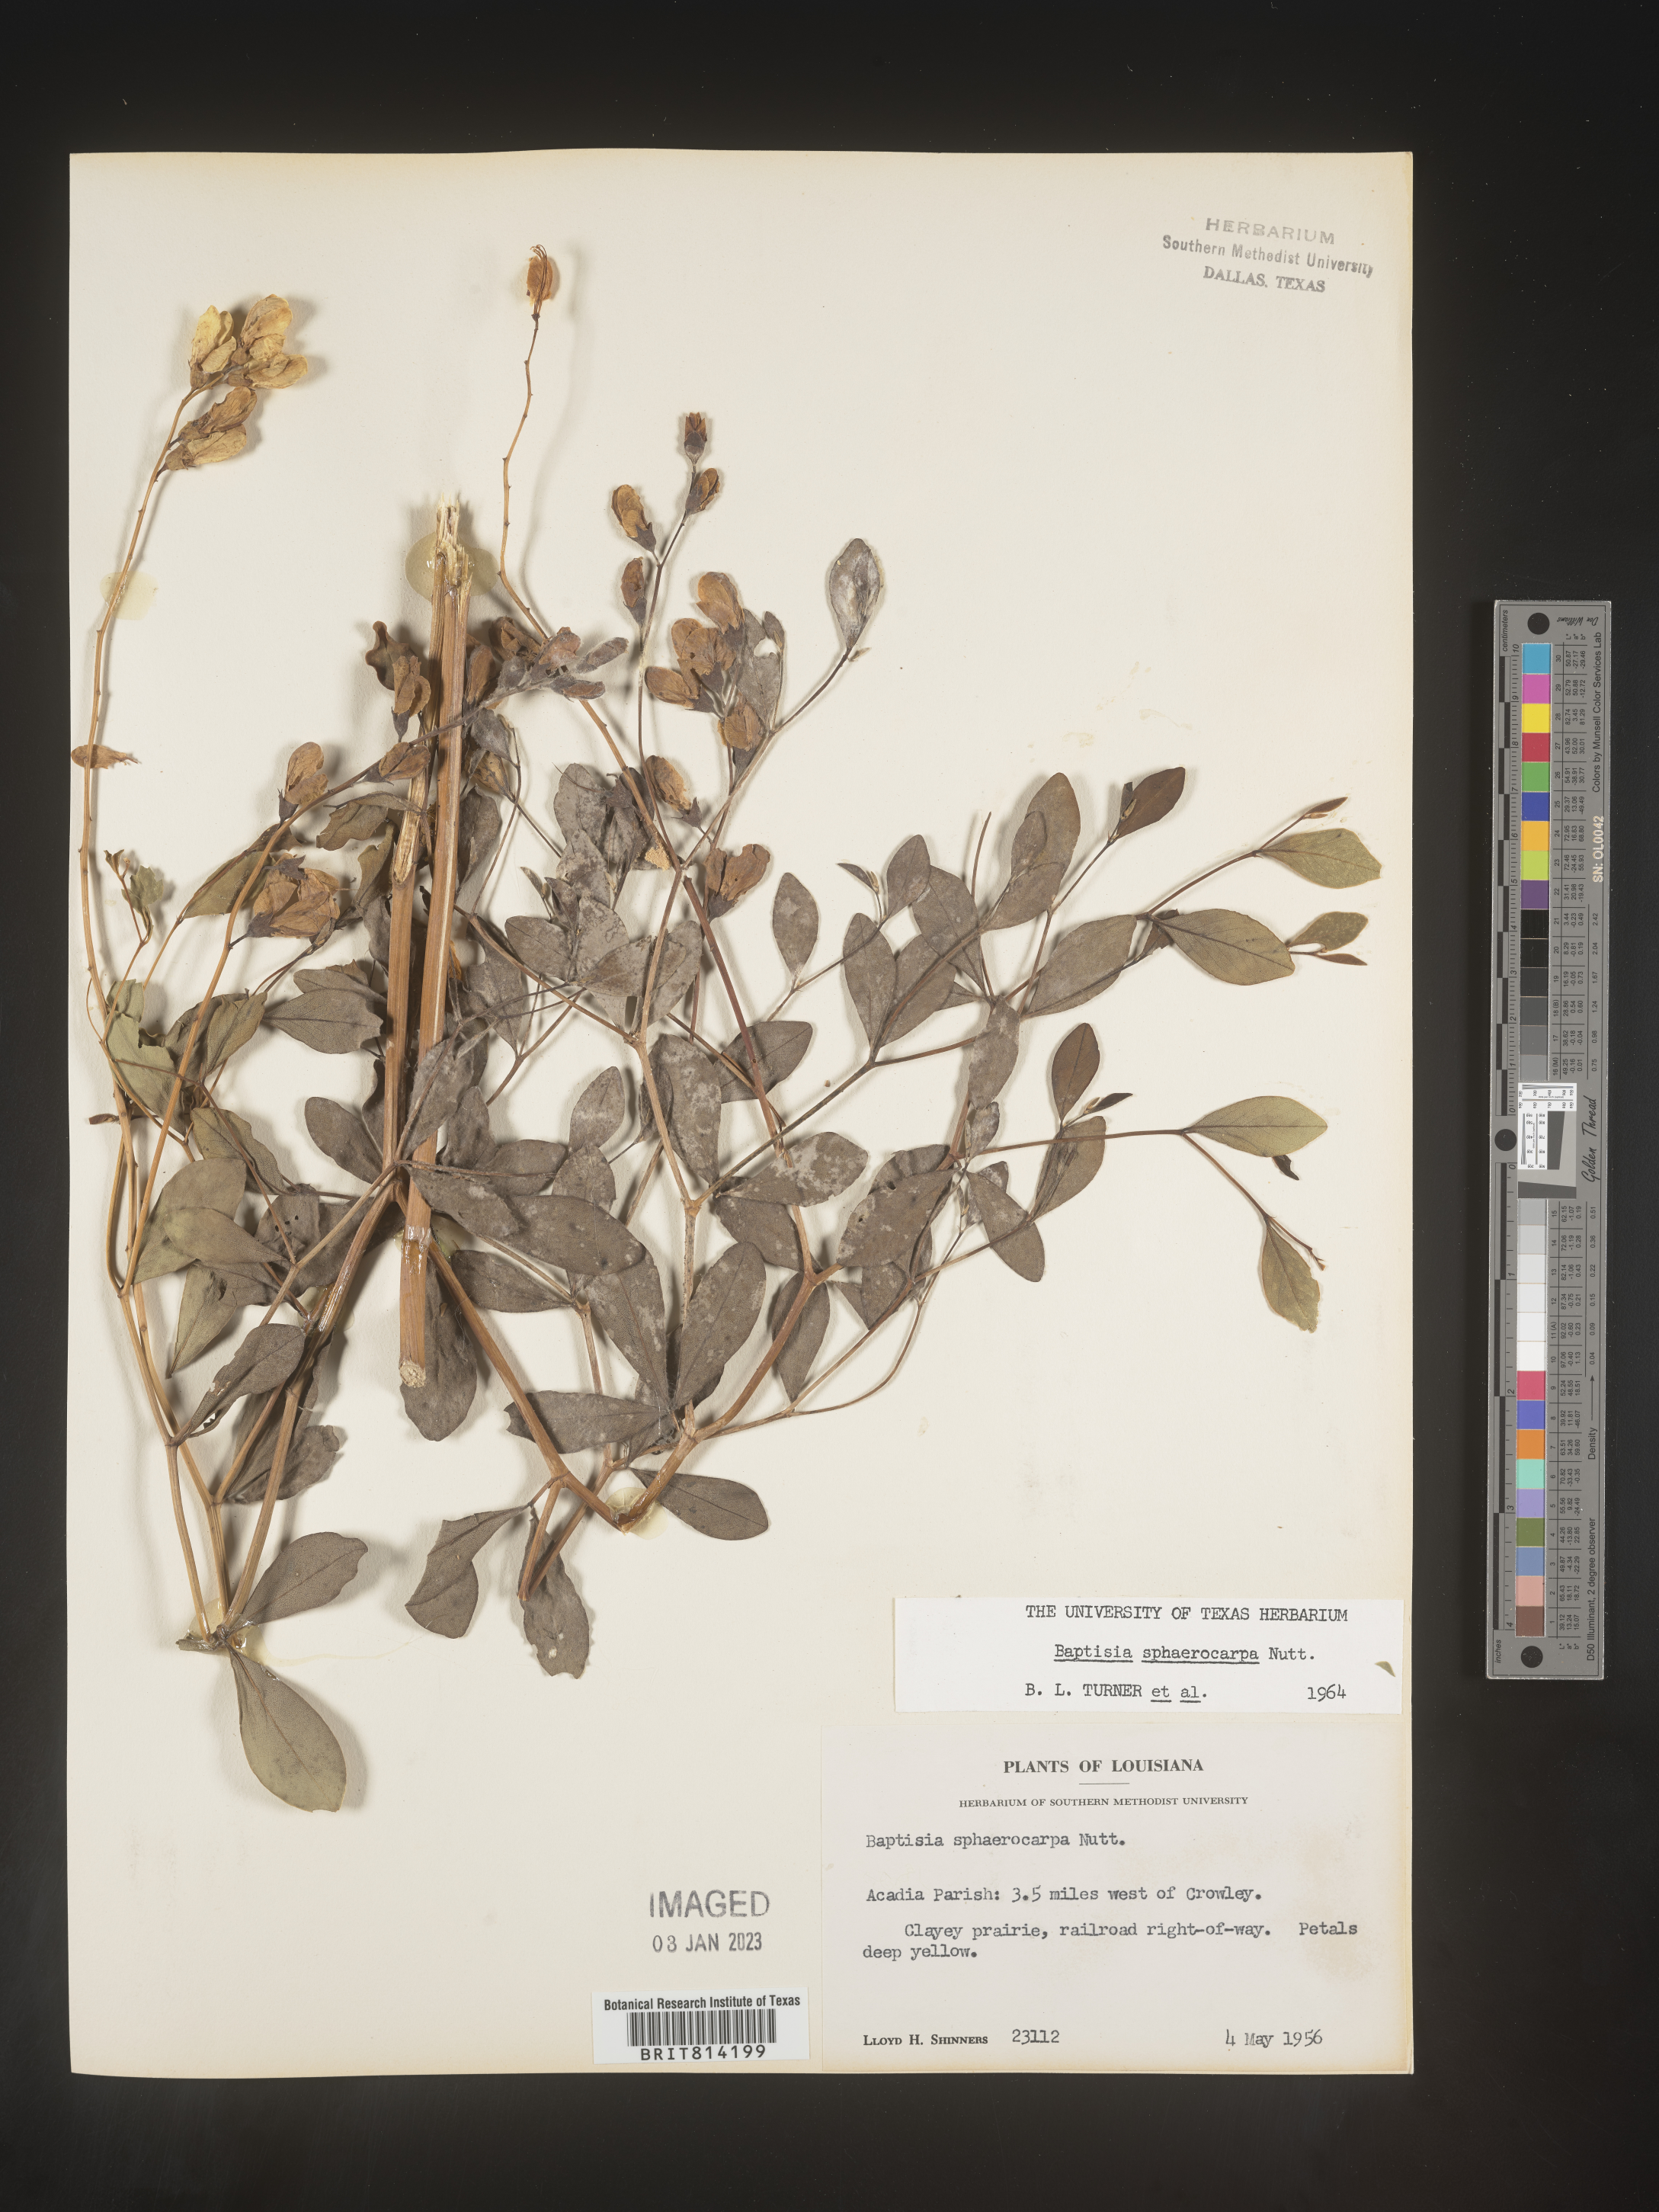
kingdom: Plantae
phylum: Tracheophyta
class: Magnoliopsida
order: Fabales
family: Fabaceae
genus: Baptisia
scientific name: Baptisia sphaerocarpa
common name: Round wild indigo
